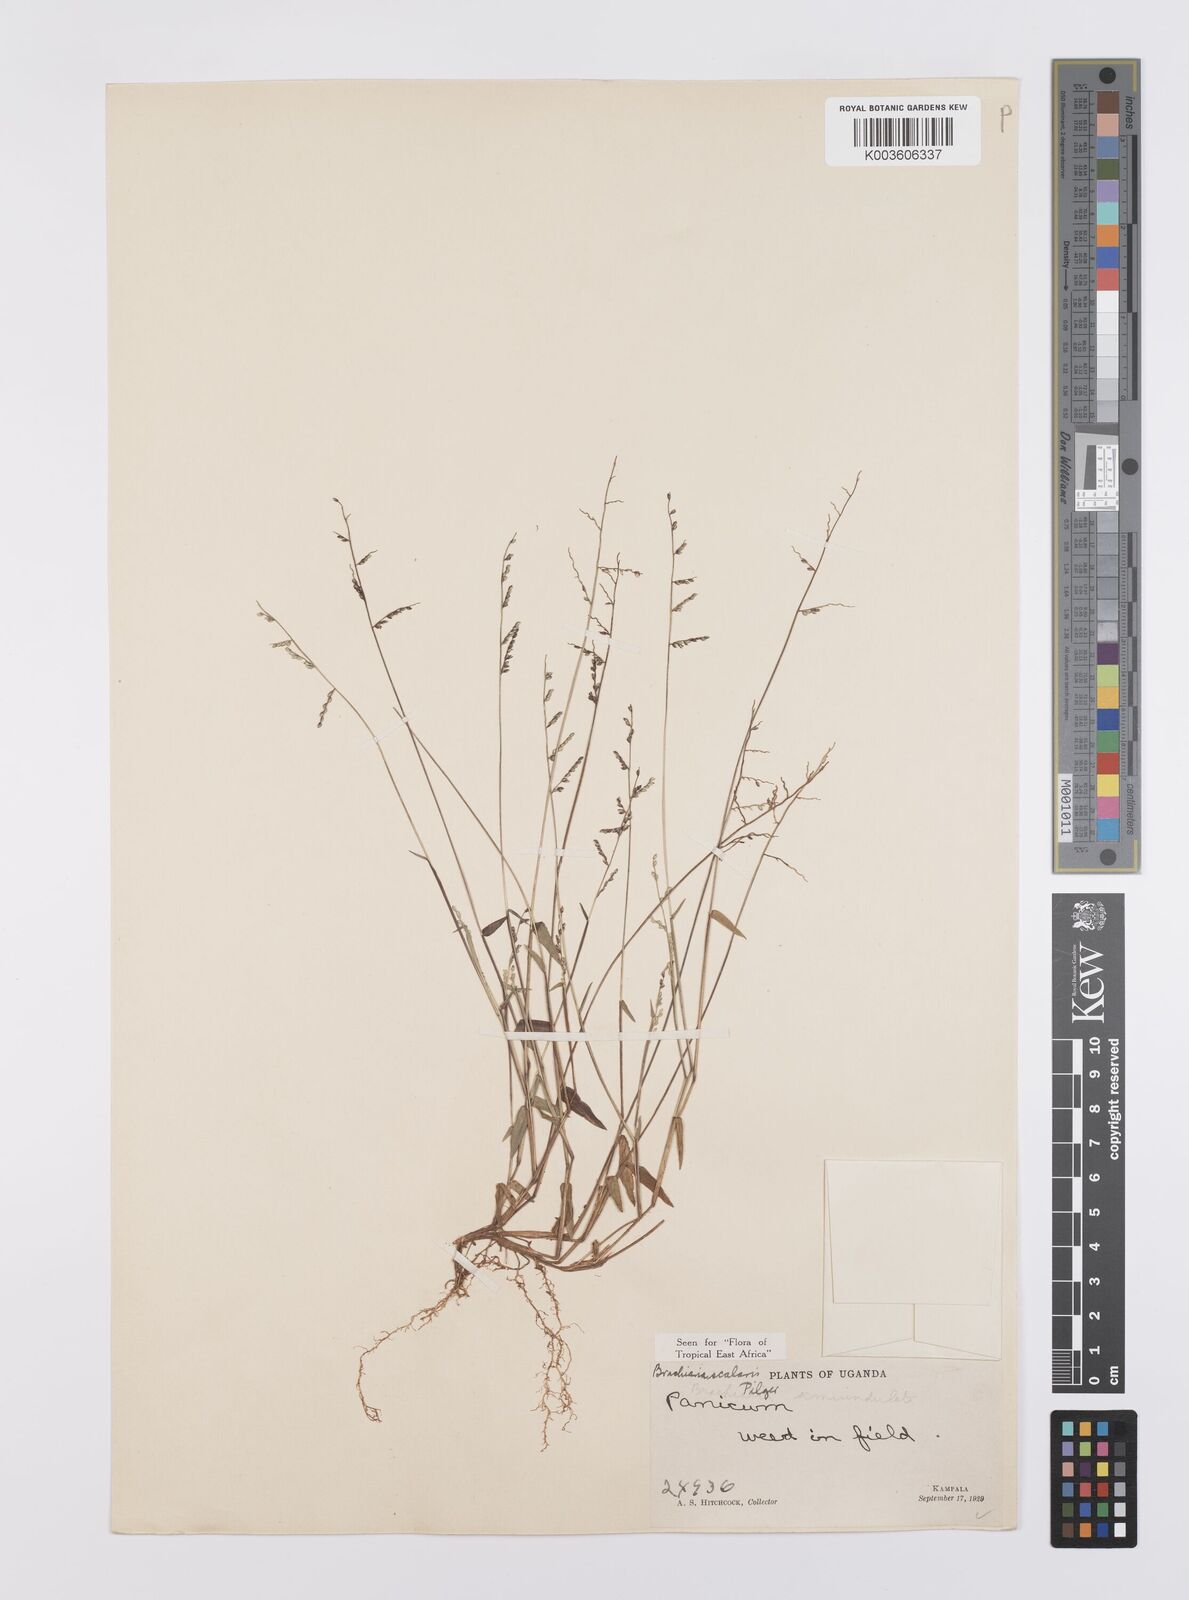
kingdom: Plantae
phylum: Tracheophyta
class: Liliopsida
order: Poales
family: Poaceae
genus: Urochloa
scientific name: Urochloa comata
